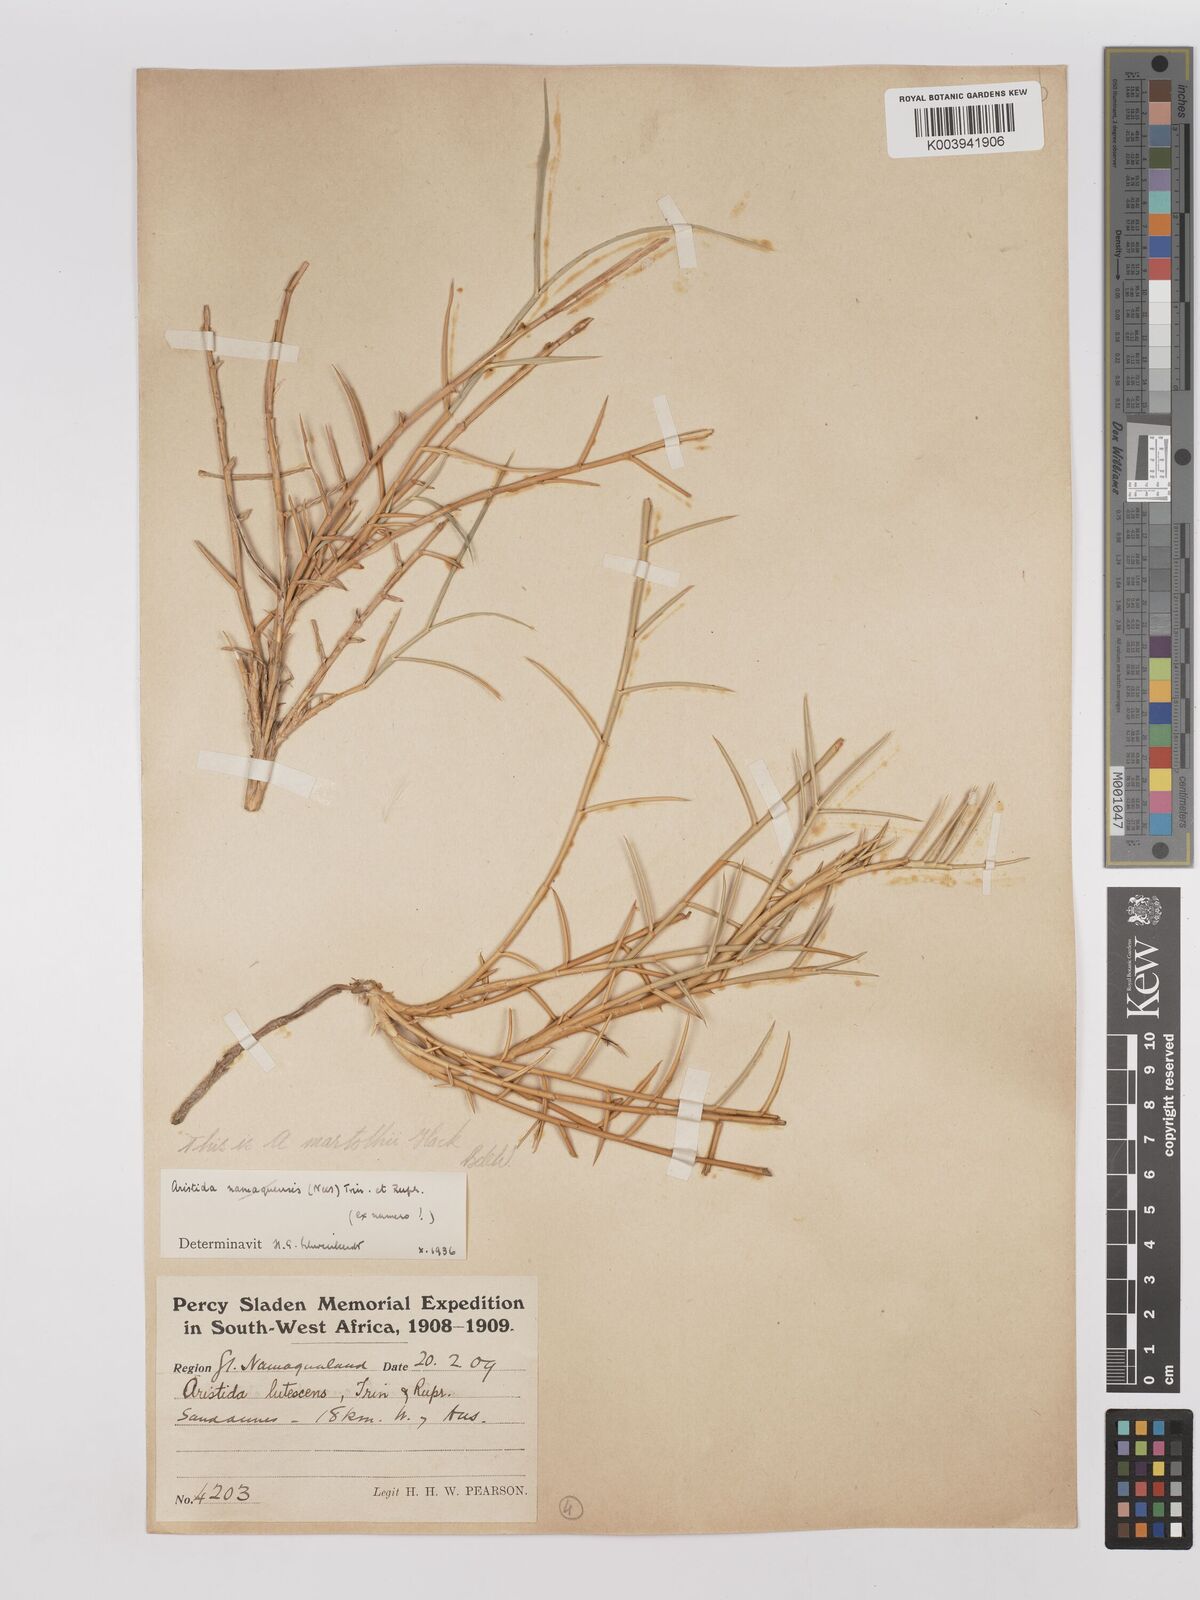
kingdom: Plantae
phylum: Tracheophyta
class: Liliopsida
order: Poales
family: Poaceae
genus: Stipagrostis
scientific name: Stipagrostis lutescens
